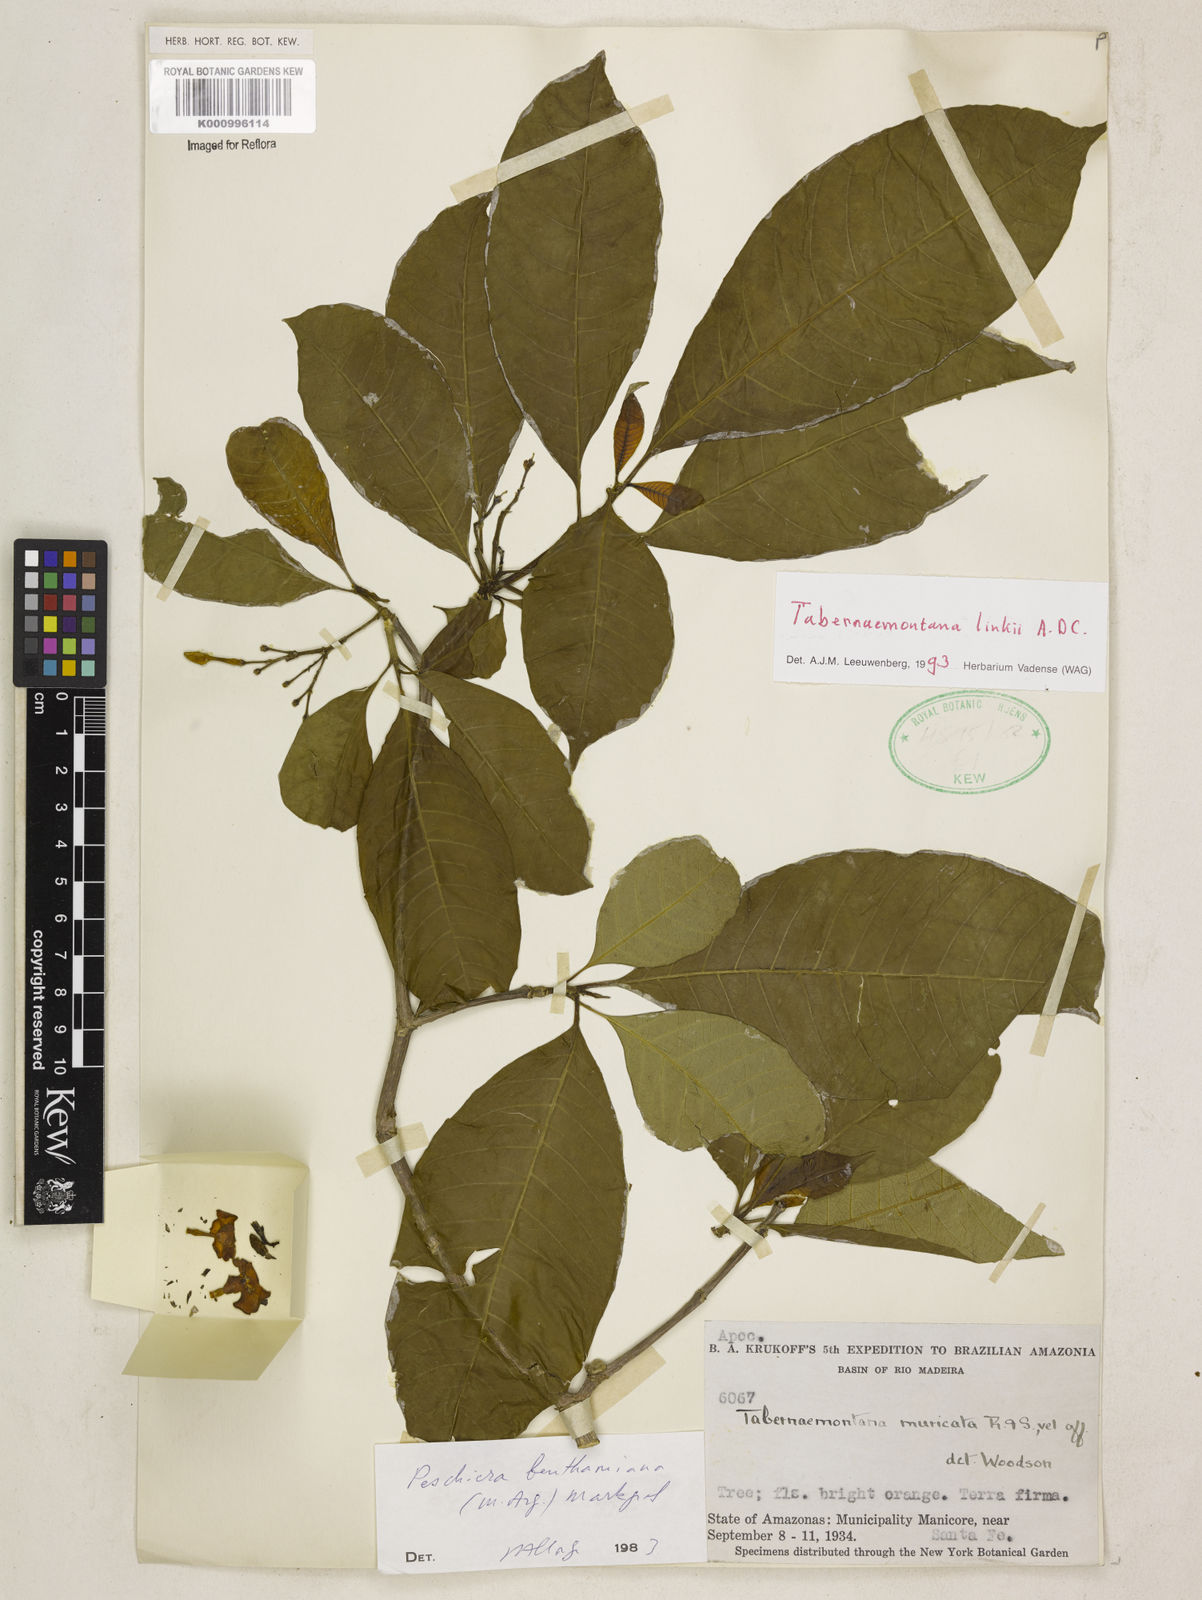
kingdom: Plantae
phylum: Tracheophyta
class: Magnoliopsida
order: Gentianales
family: Apocynaceae
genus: Tabernaemontana
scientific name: Tabernaemontana linkii
